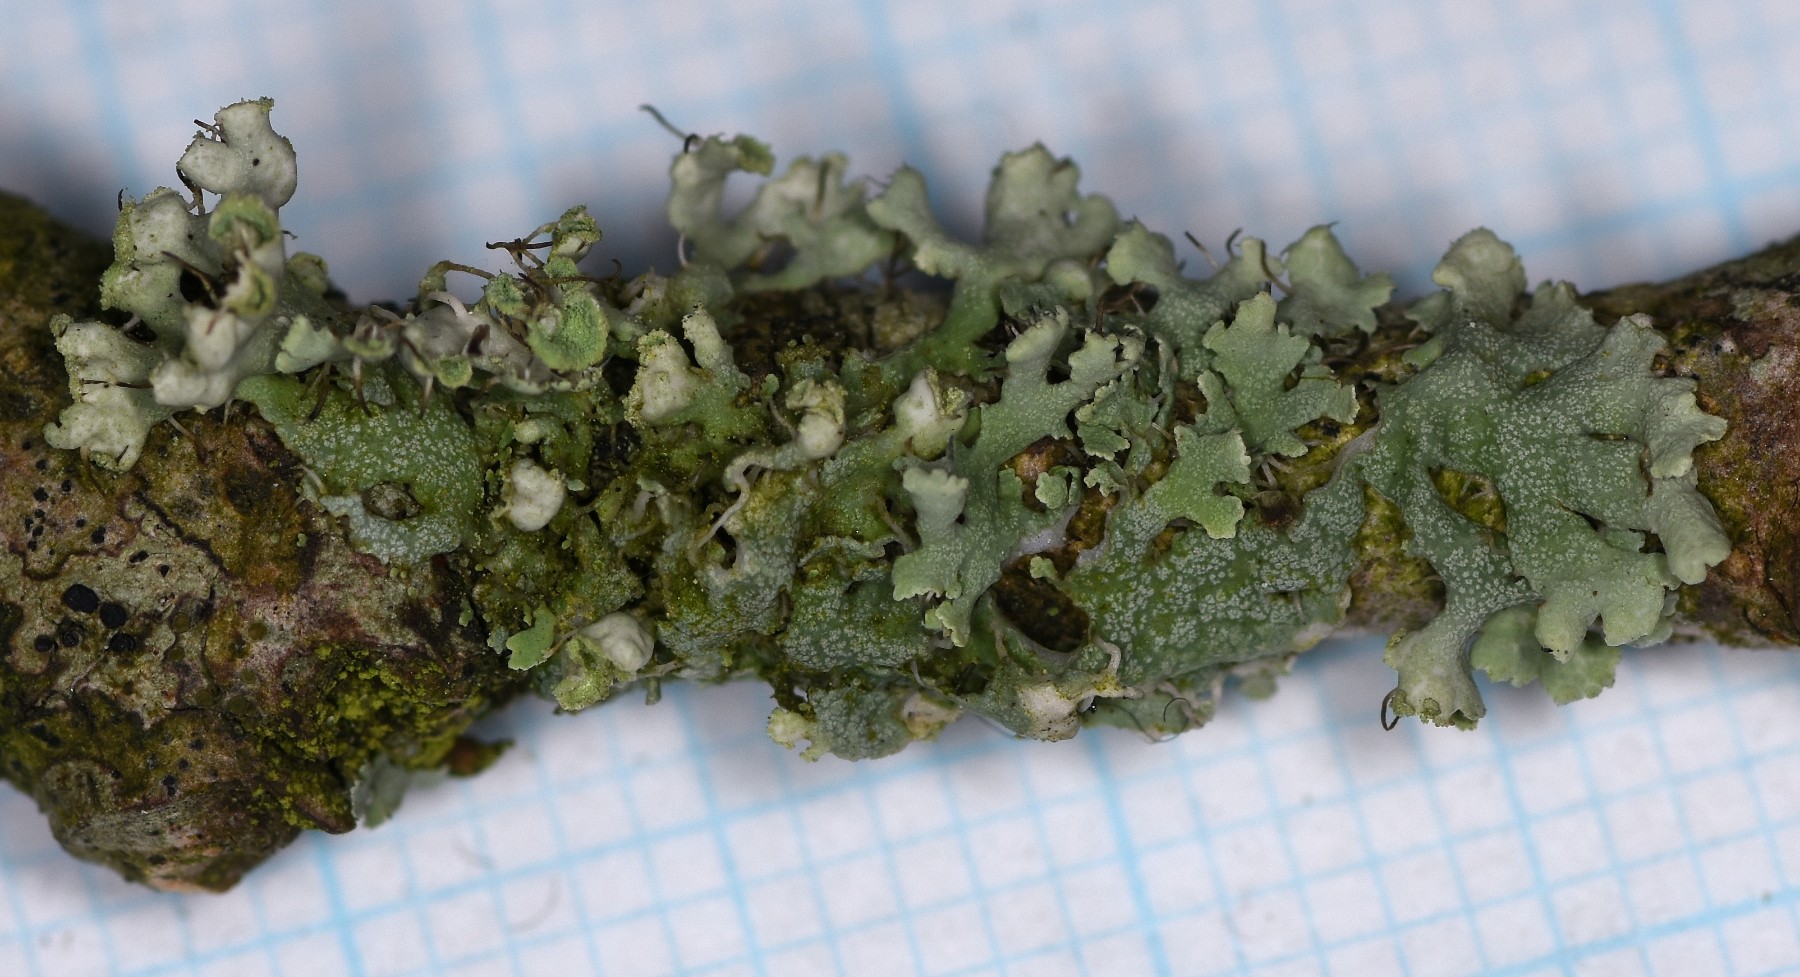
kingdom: Fungi
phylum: Ascomycota
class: Lecanoromycetes
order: Caliciales
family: Physciaceae
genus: Physcia
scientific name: Physcia adscendens
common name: hætte-rosetlav
